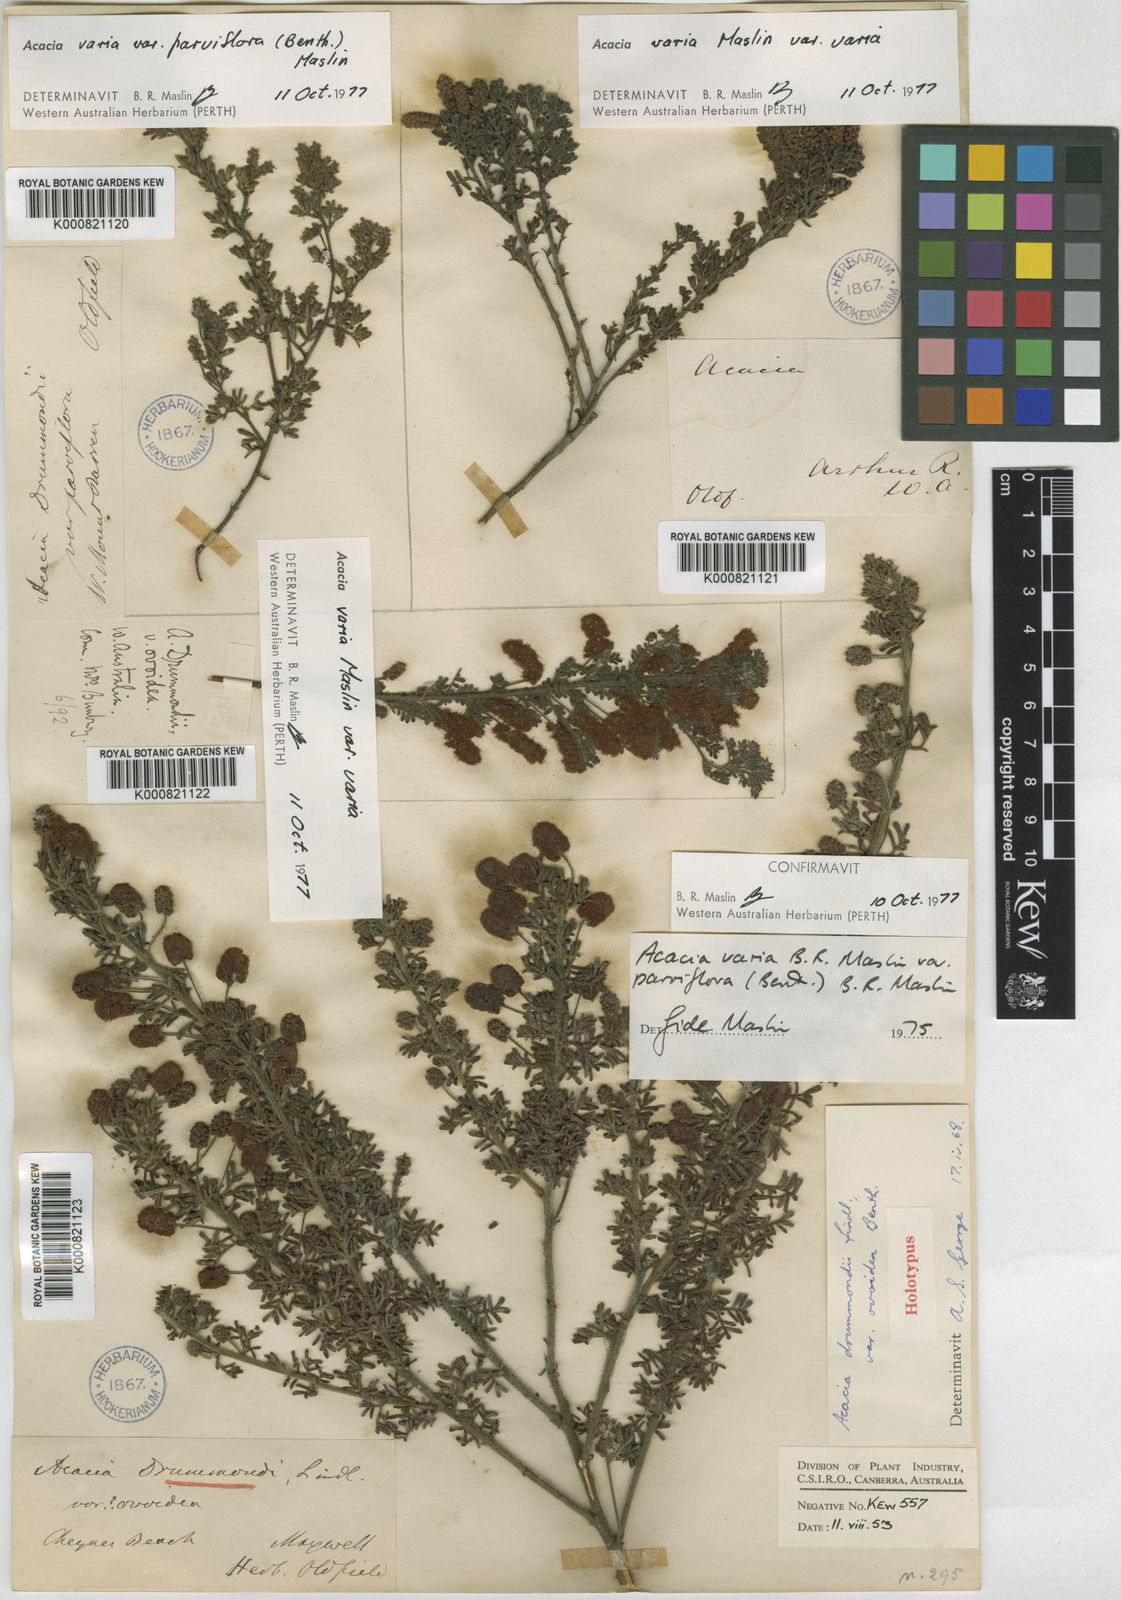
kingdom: Plantae
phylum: Tracheophyta
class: Magnoliopsida
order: Fabales
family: Fabaceae
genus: Acacia
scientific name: Acacia varia
